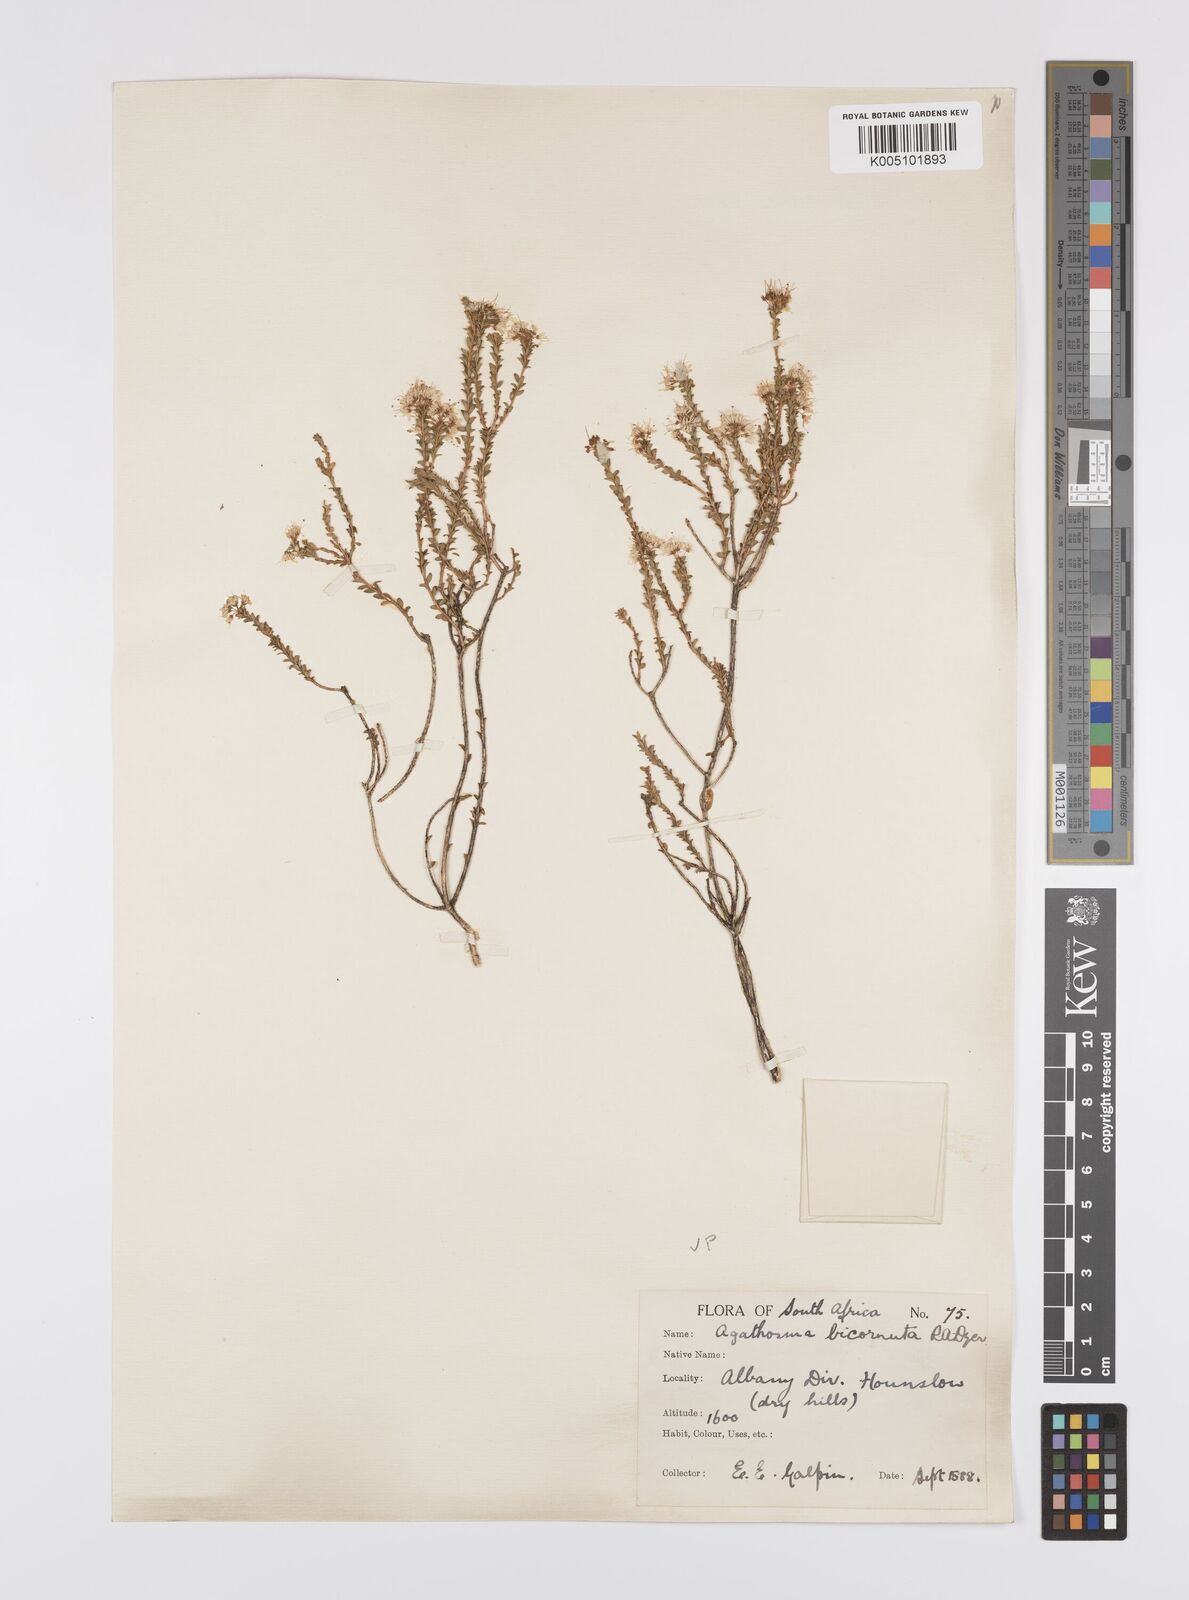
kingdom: Plantae
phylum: Tracheophyta
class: Magnoliopsida
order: Sapindales
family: Rutaceae
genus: Agathosma
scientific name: Agathosma bicornuta
